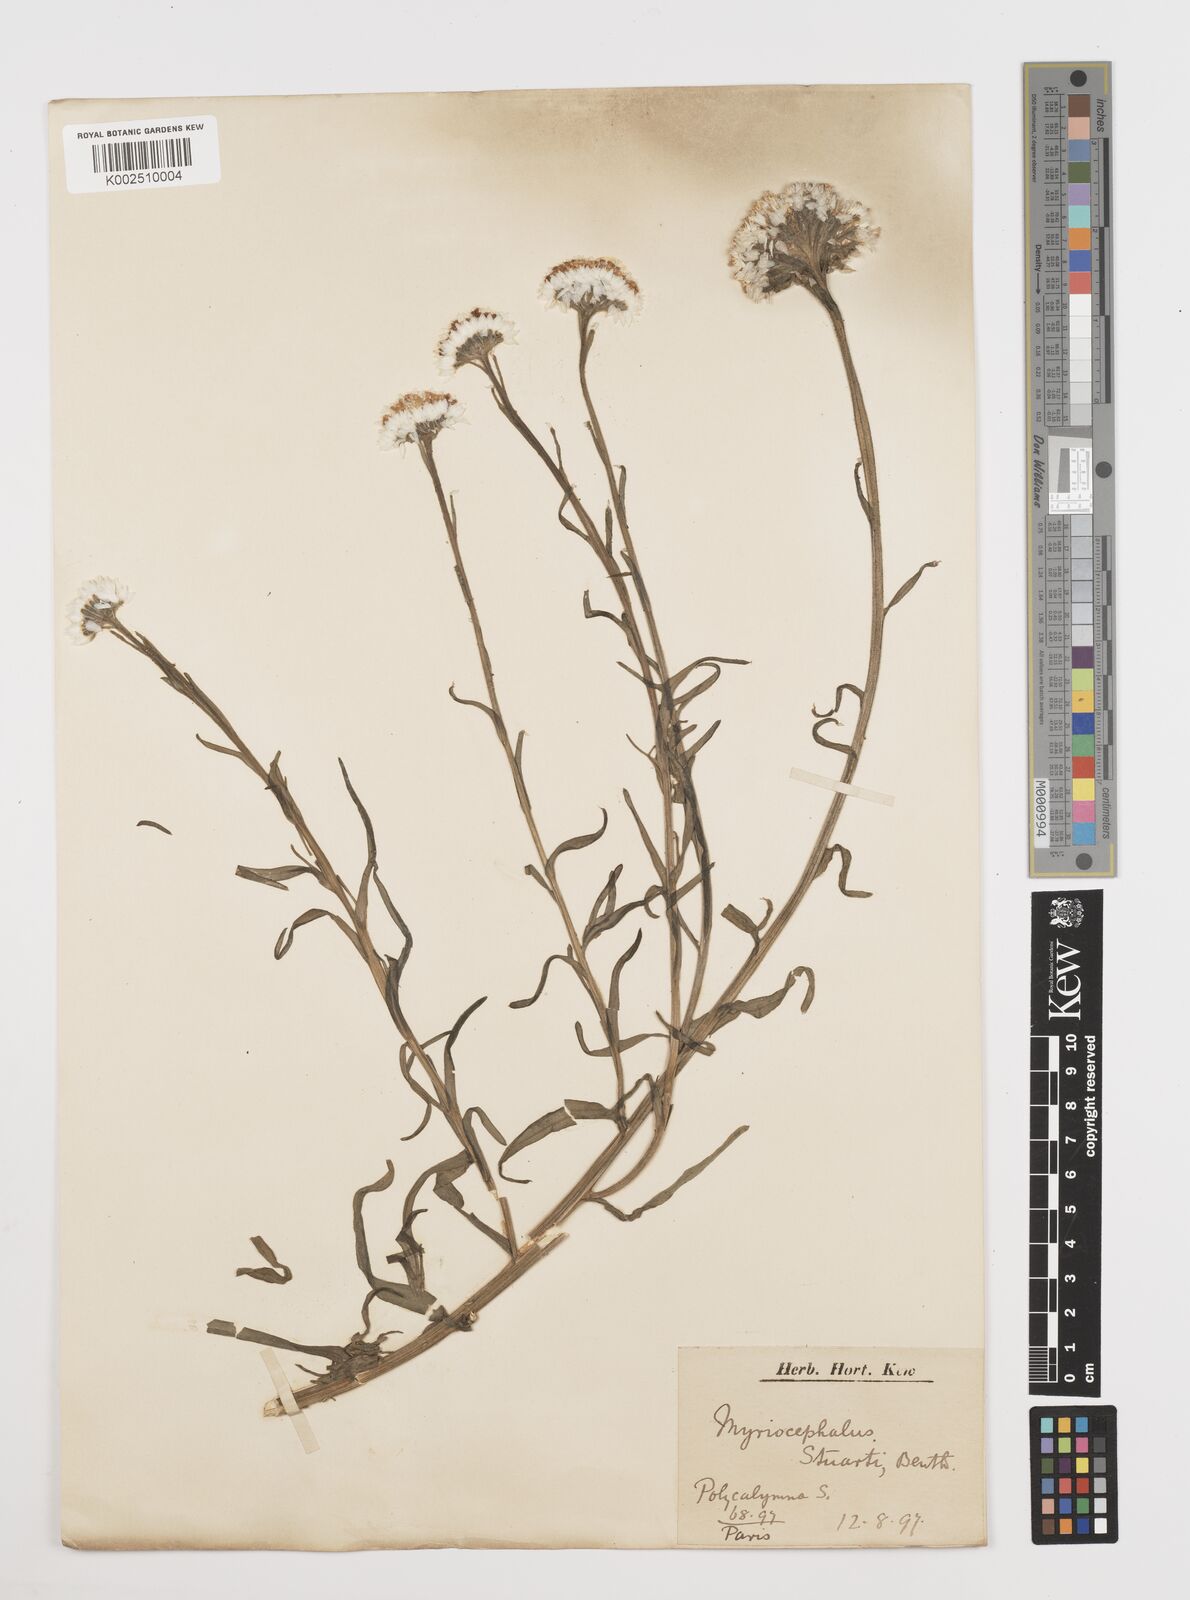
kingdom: Plantae
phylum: Tracheophyta
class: Magnoliopsida
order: Asterales
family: Asteraceae
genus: Polycalymma
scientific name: Polycalymma stuartii
